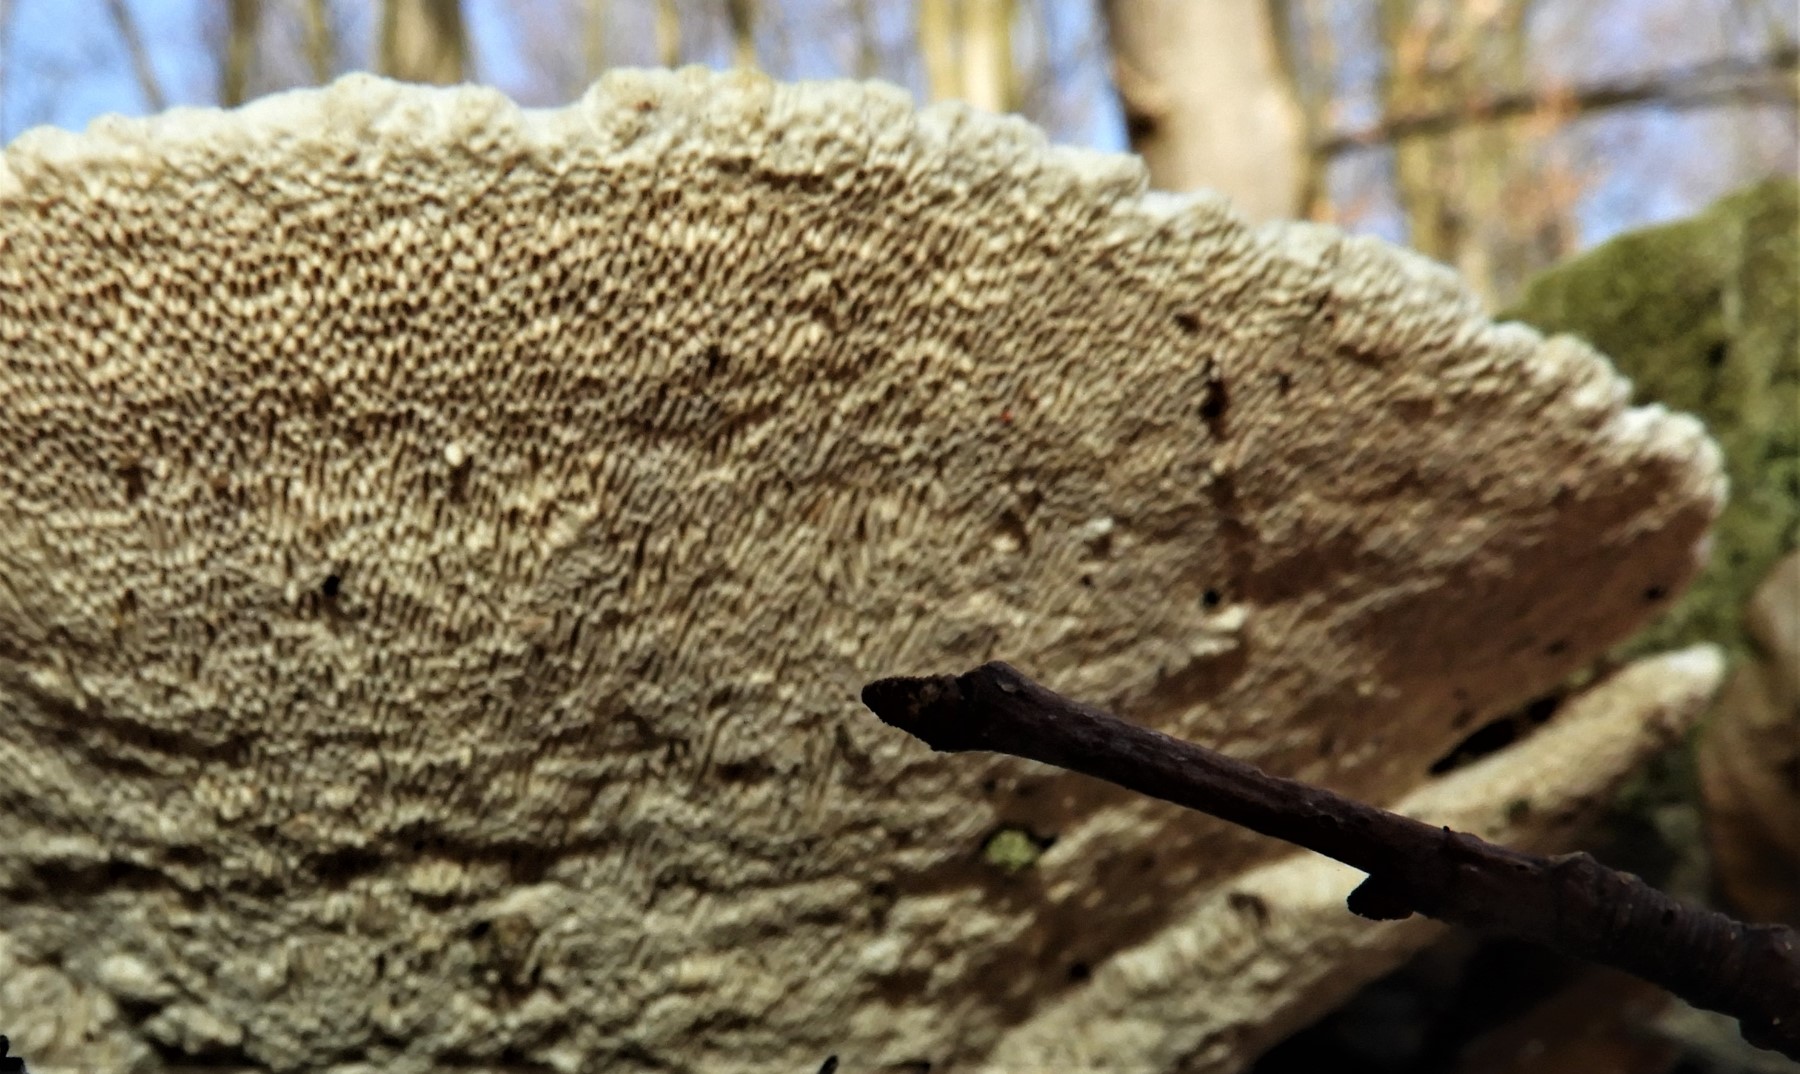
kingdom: Fungi
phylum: Basidiomycota
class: Agaricomycetes
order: Polyporales
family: Polyporaceae
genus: Trametes
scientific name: Trametes gibbosa
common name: puklet læderporesvamp
